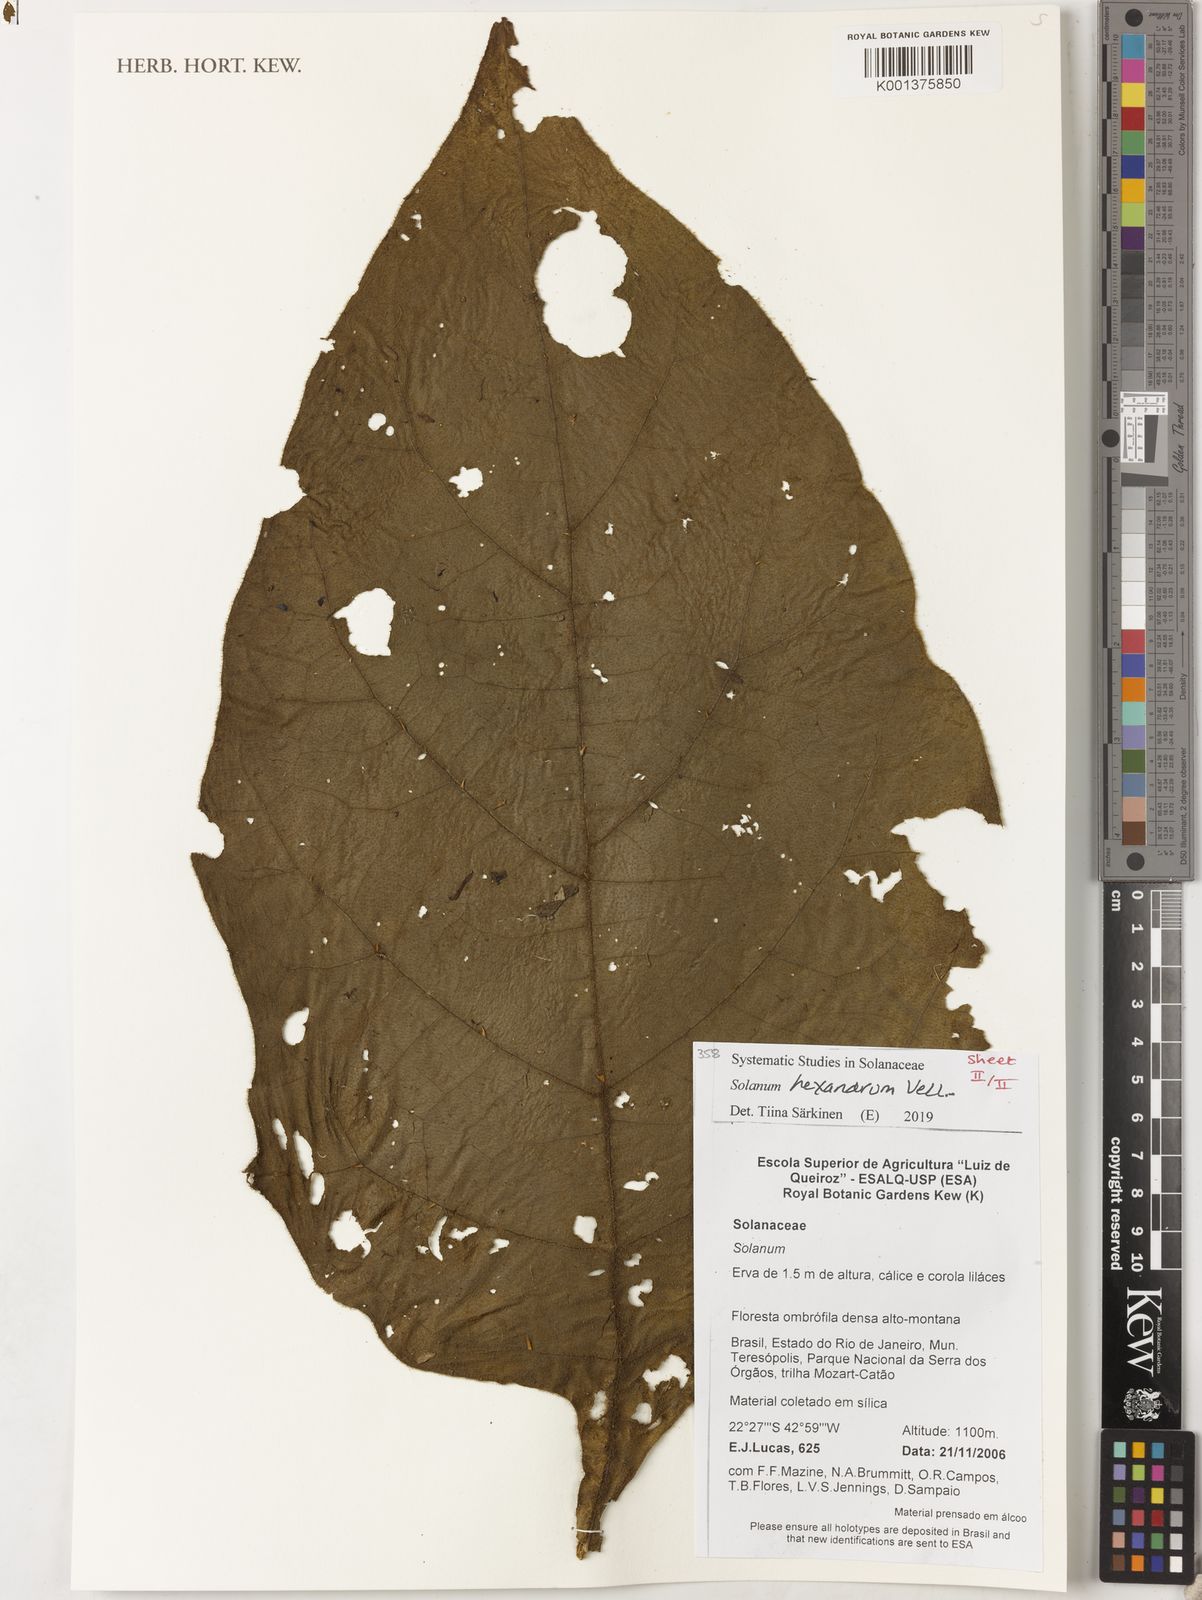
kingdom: Plantae
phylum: Tracheophyta
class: Magnoliopsida
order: Solanales
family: Solanaceae
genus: Solanum
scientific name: Solanum hexandrum
